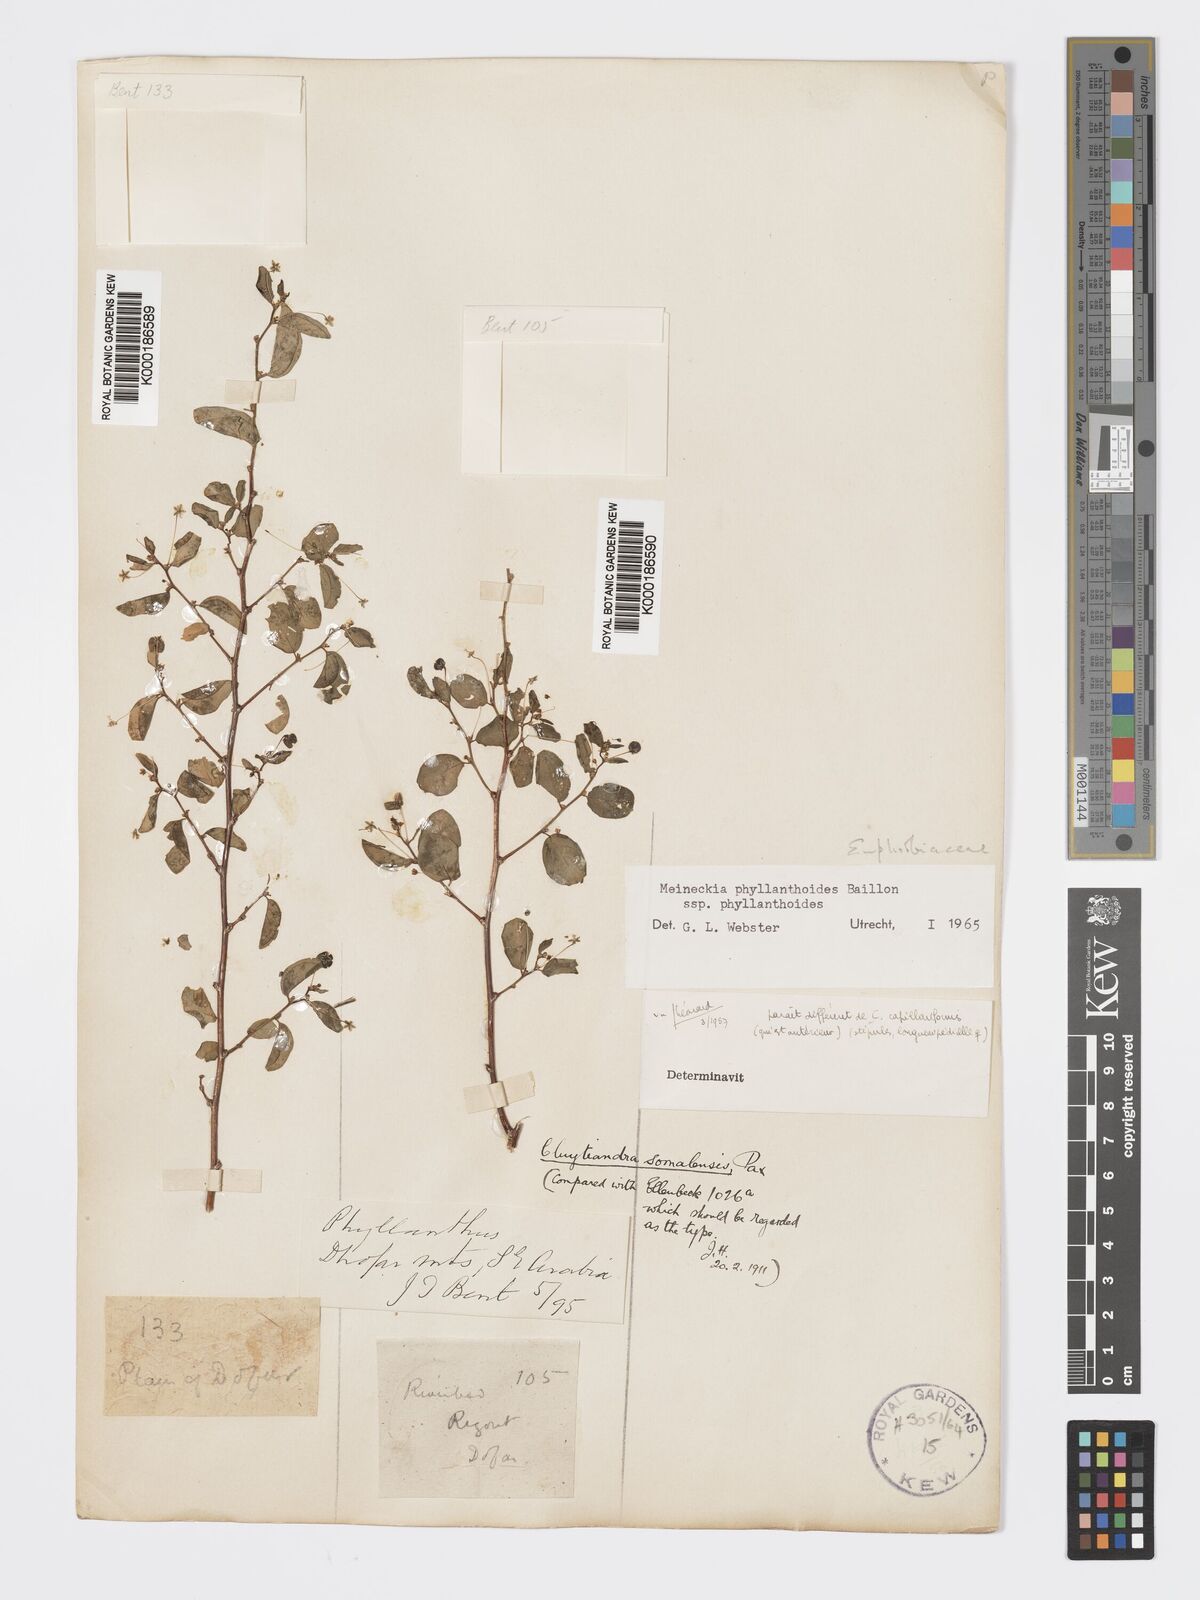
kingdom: Plantae
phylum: Tracheophyta
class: Magnoliopsida
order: Malpighiales
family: Phyllanthaceae
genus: Meineckia
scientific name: Meineckia phyllanthoides
